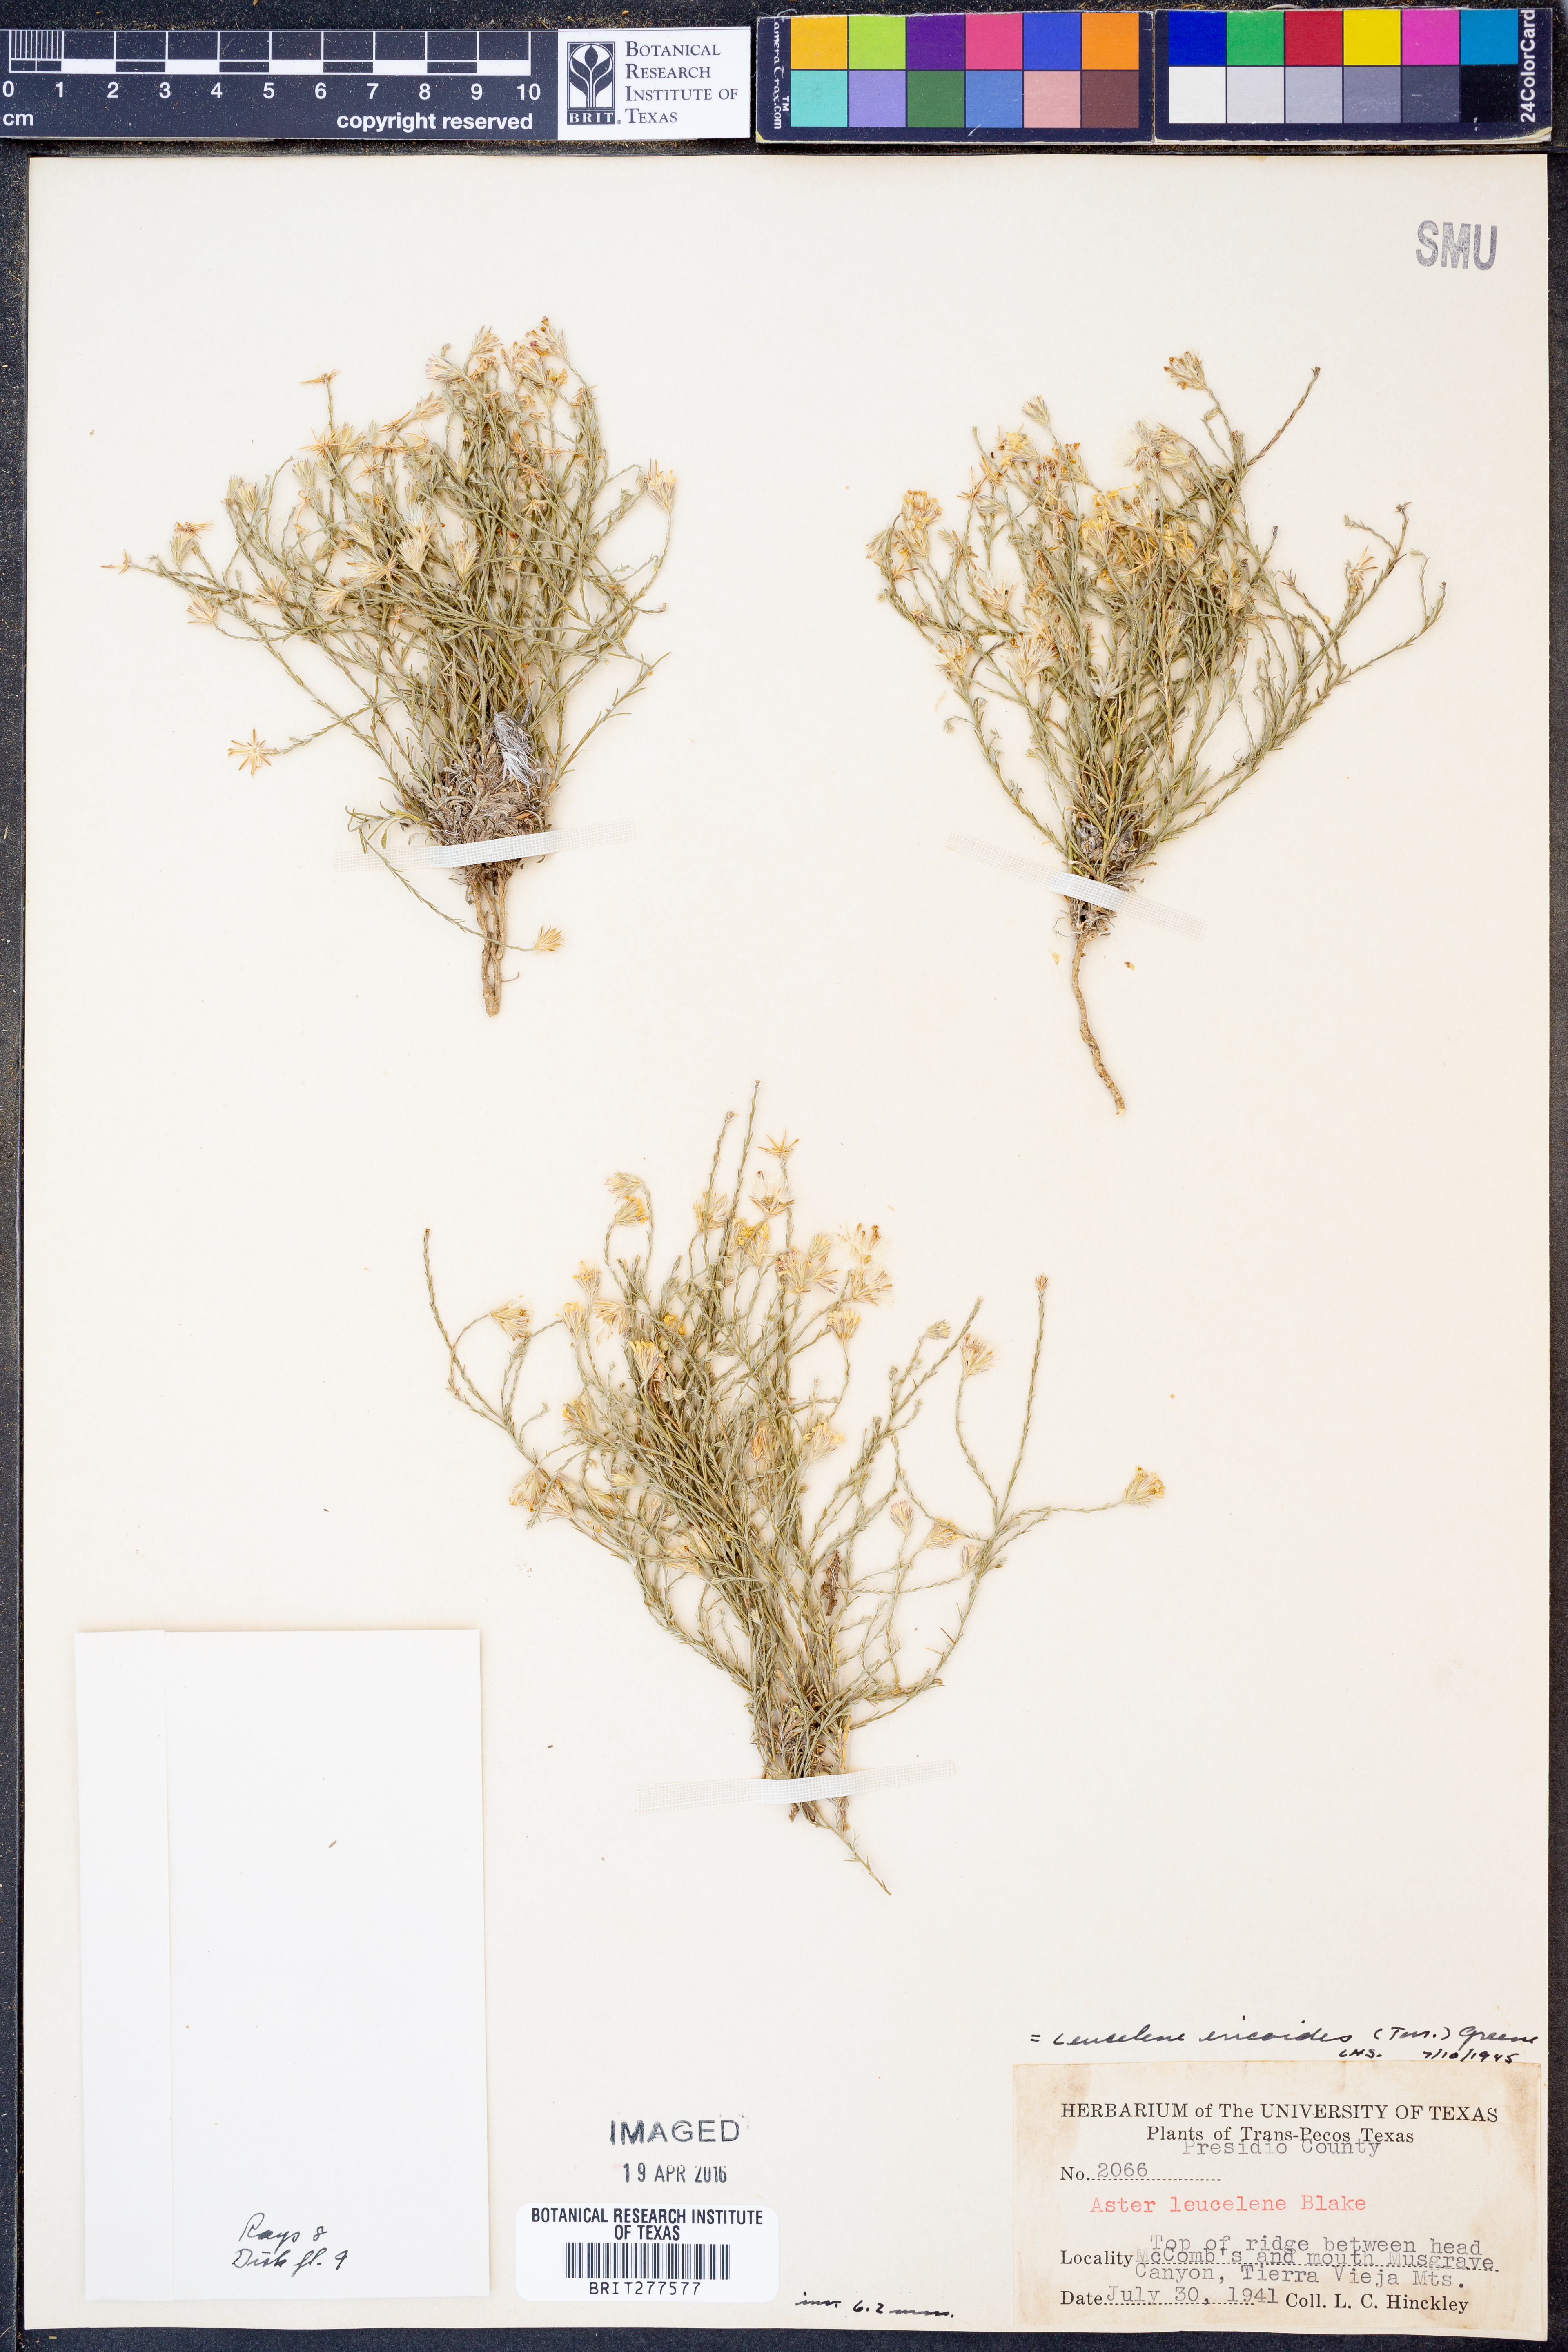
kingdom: Plantae
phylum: Tracheophyta
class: Magnoliopsida
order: Asterales
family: Asteraceae
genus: Chaetopappa
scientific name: Chaetopappa ericoides
